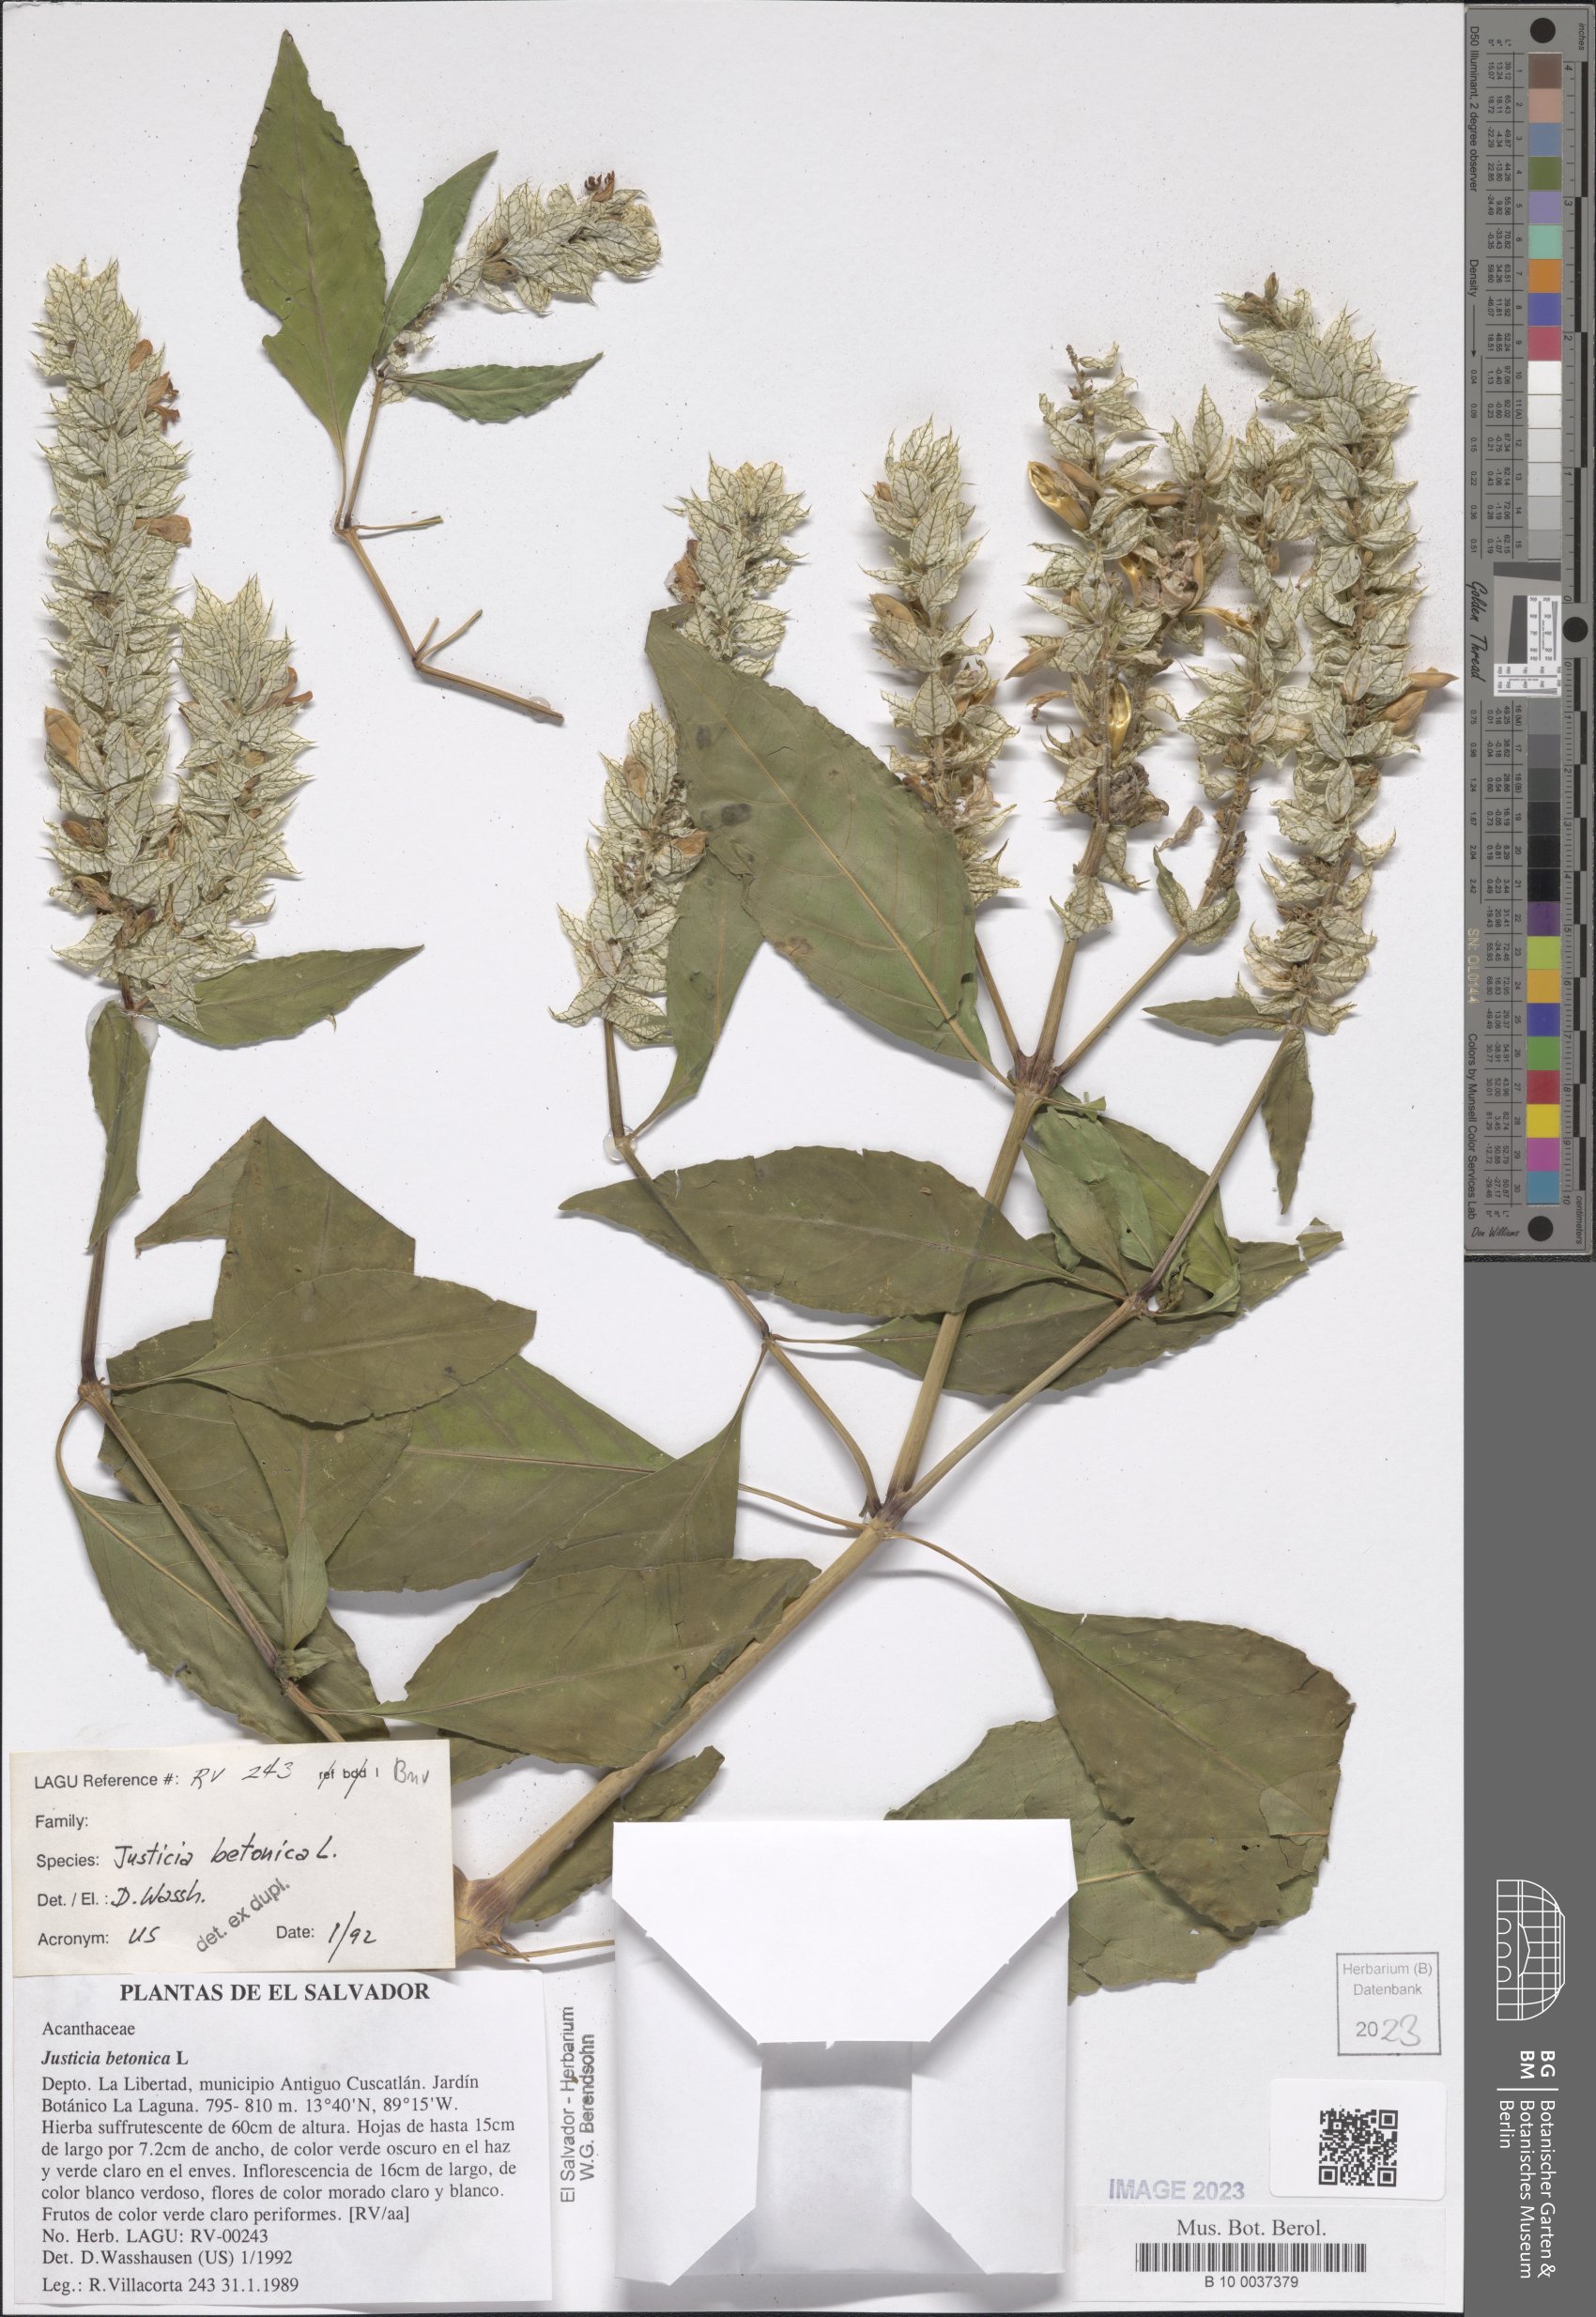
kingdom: Plantae
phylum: Tracheophyta
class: Magnoliopsida
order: Lamiales
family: Acanthaceae
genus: Nicoteba
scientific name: Nicoteba betonica
